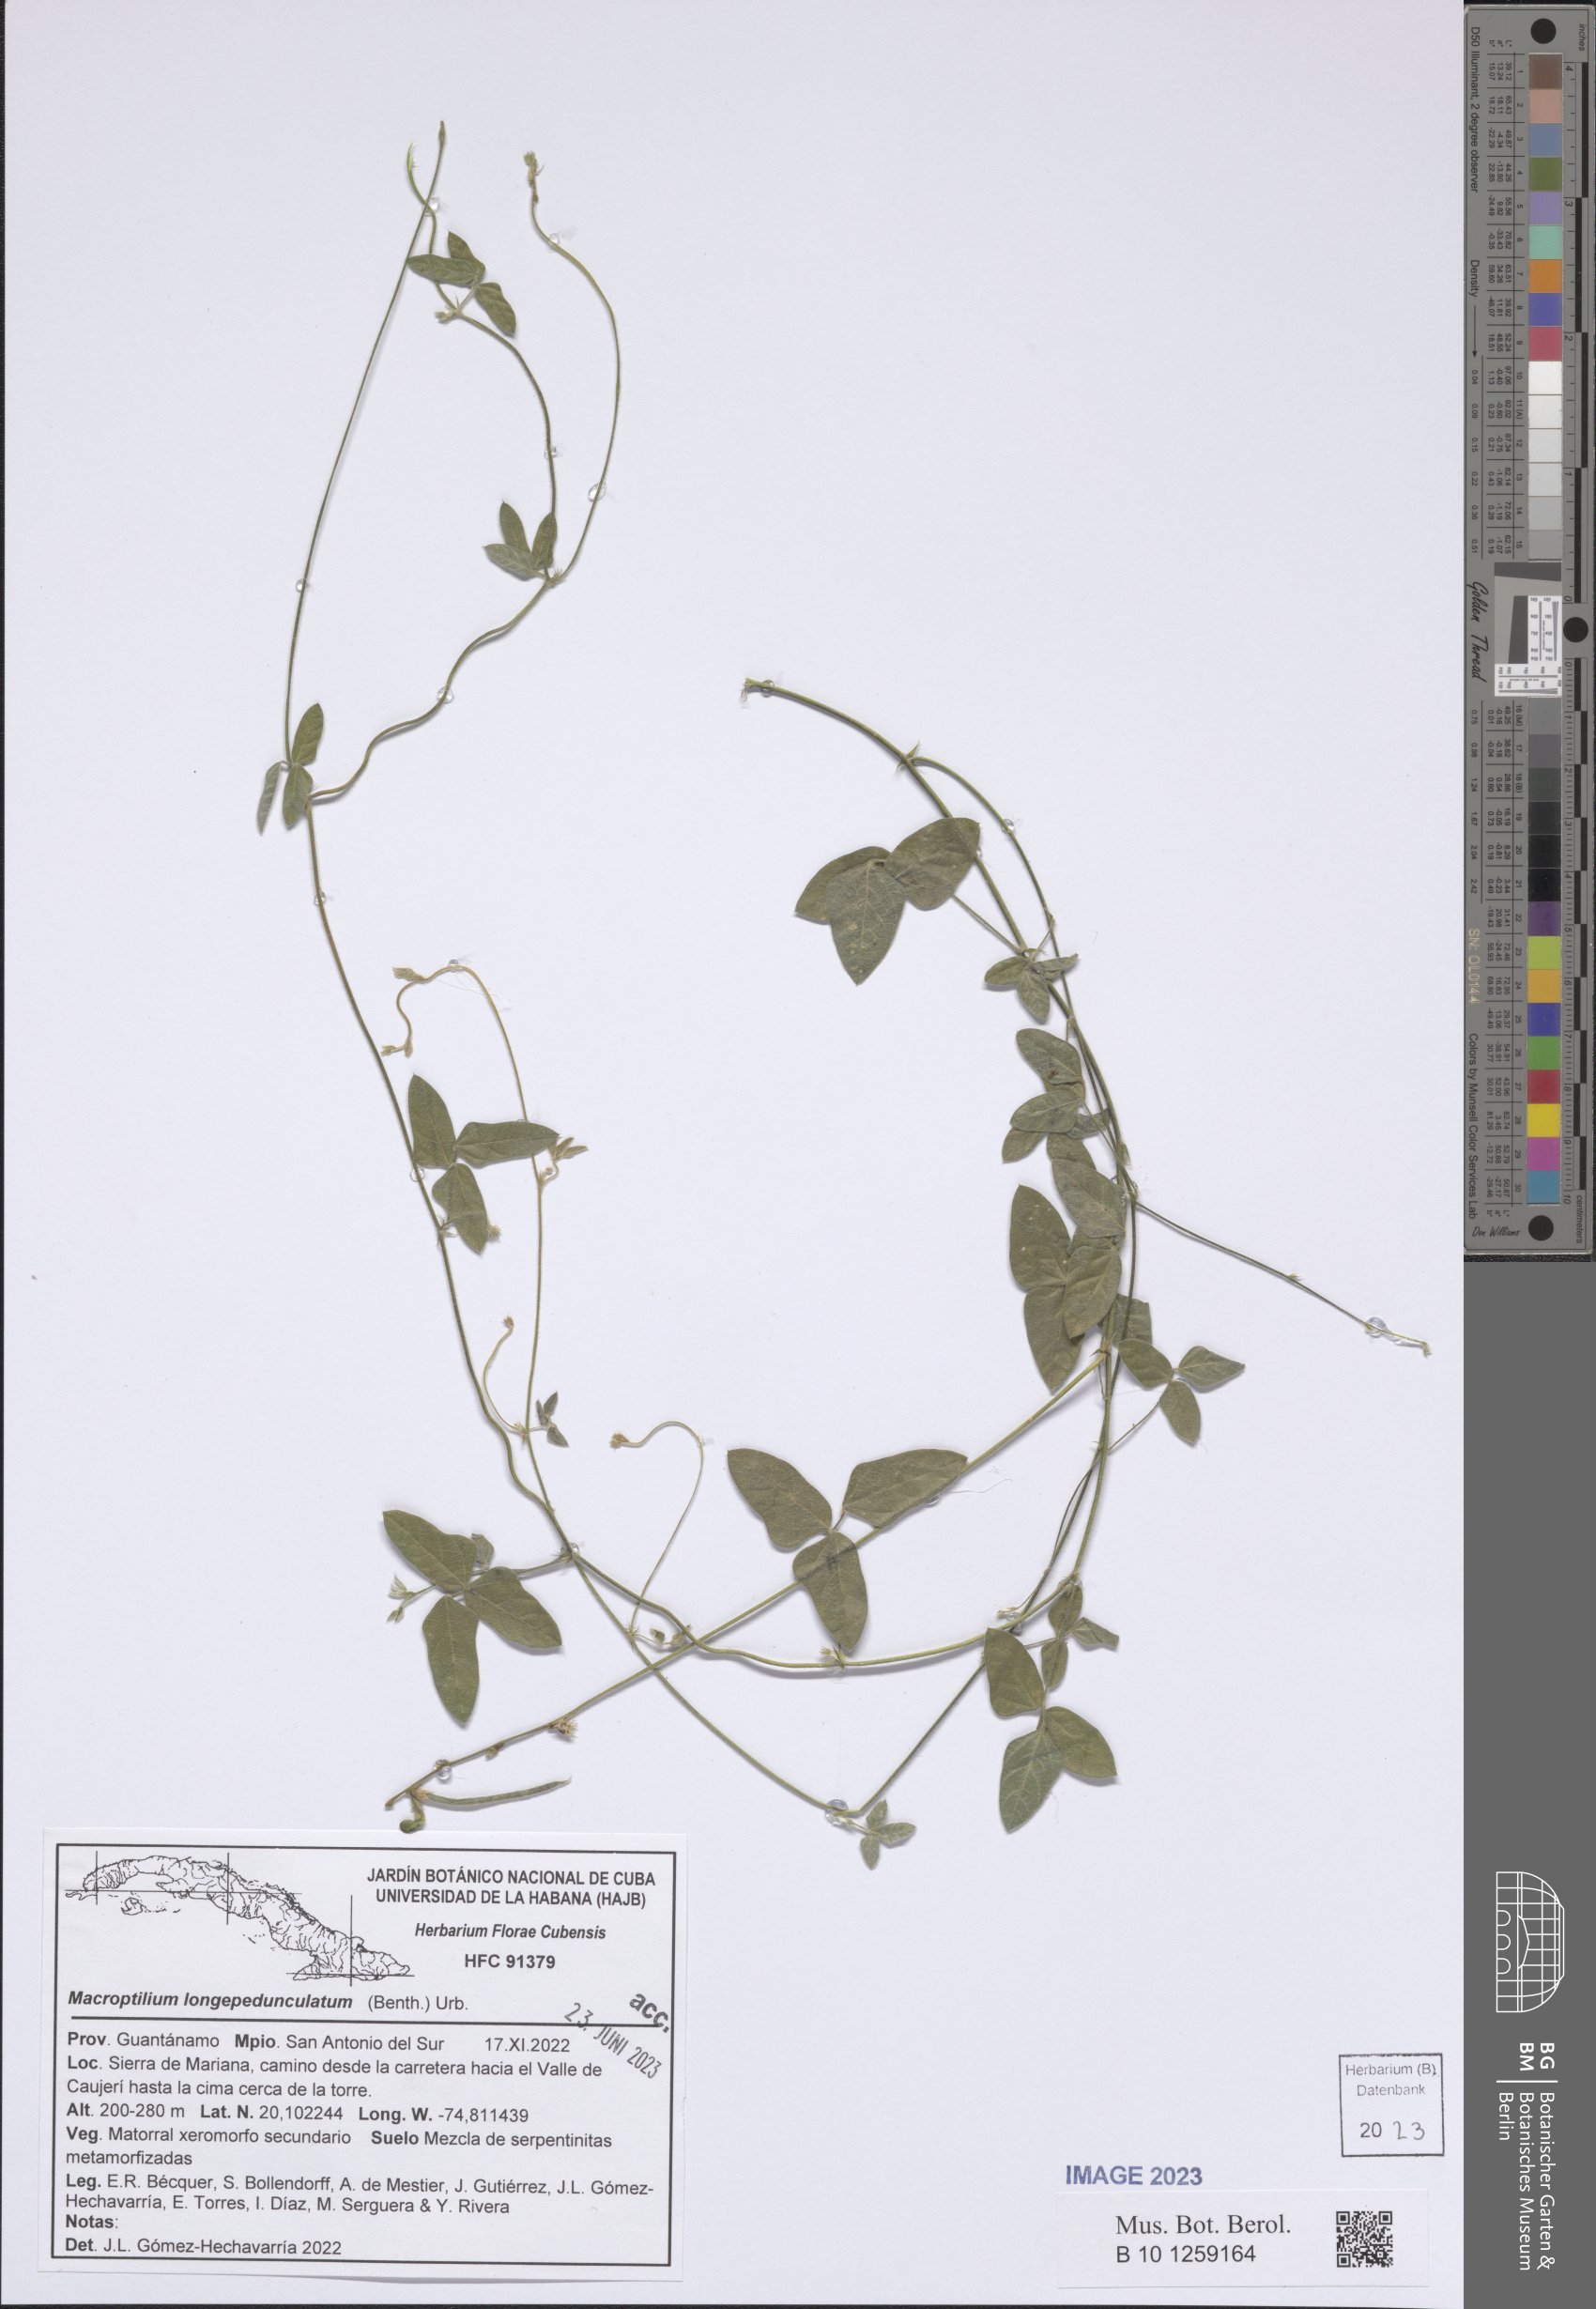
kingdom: Plantae
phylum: Tracheophyta
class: Magnoliopsida
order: Fabales
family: Fabaceae
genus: Macroptilium
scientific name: Macroptilium longepedunculatum
